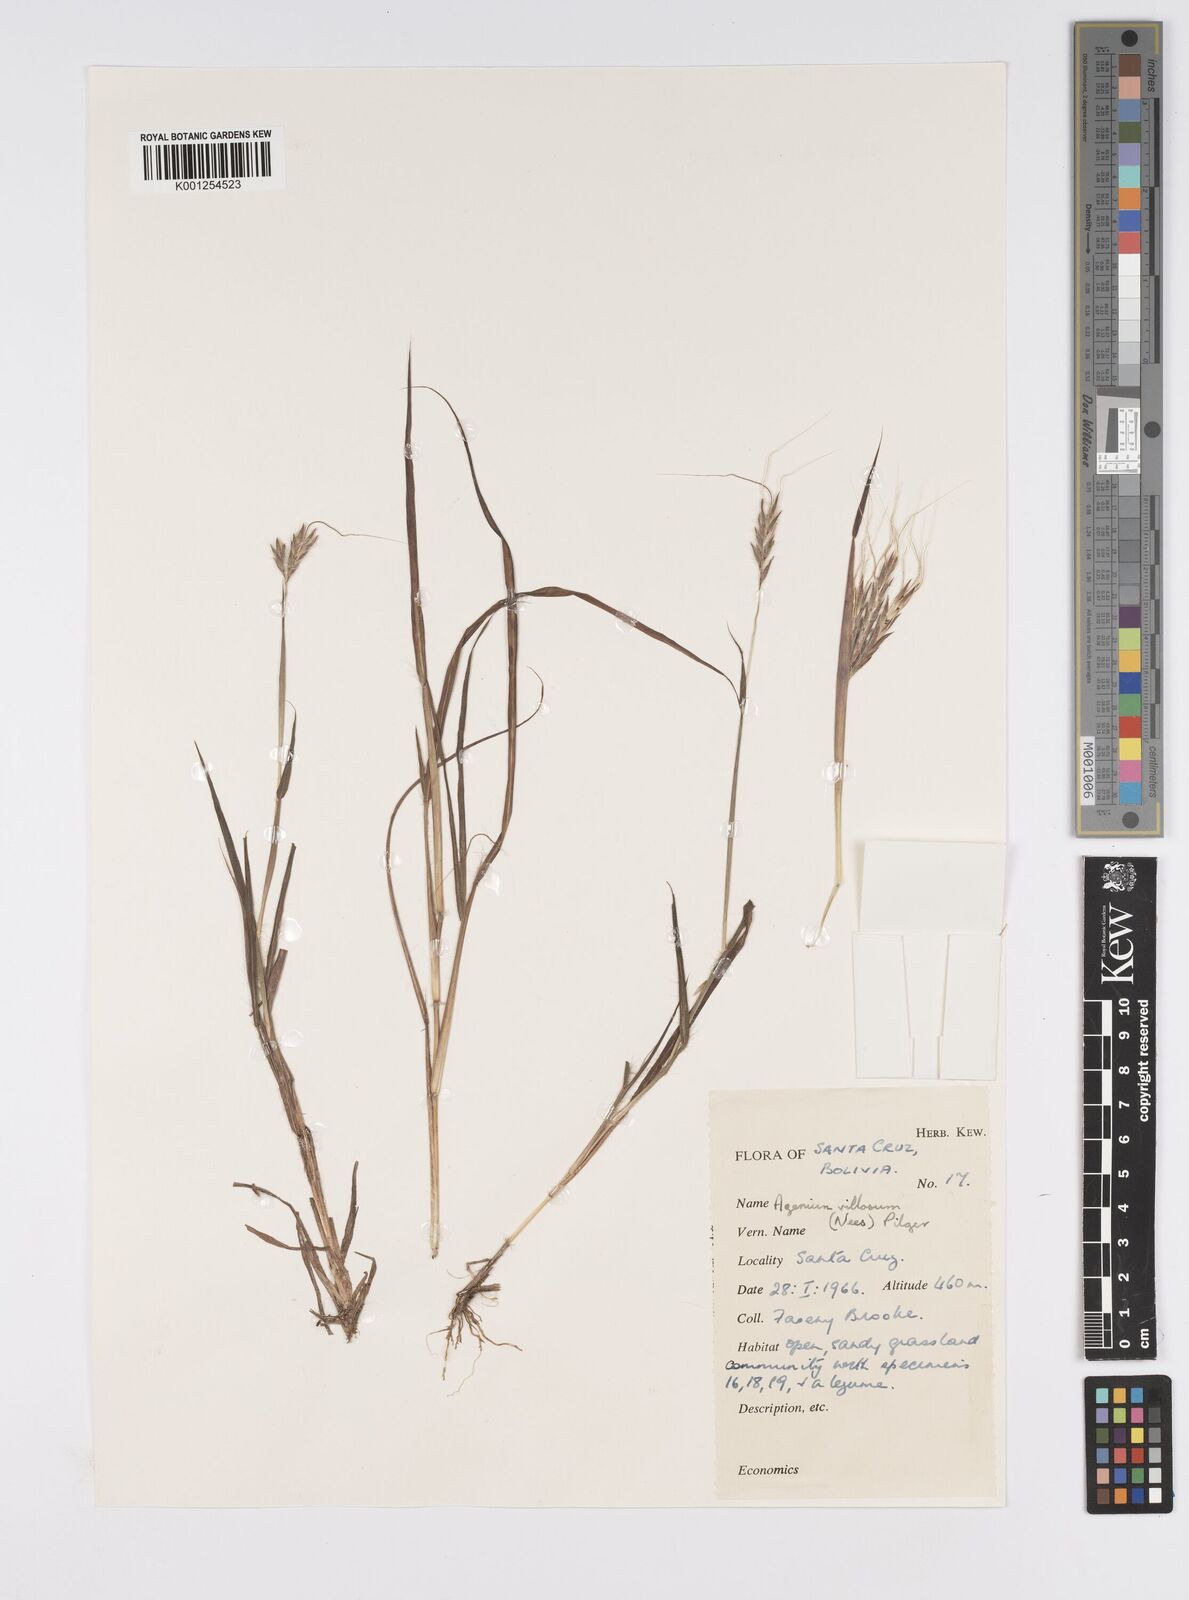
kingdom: Plantae
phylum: Tracheophyta
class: Liliopsida
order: Poales
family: Poaceae
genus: Agenium
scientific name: Agenium villosum
